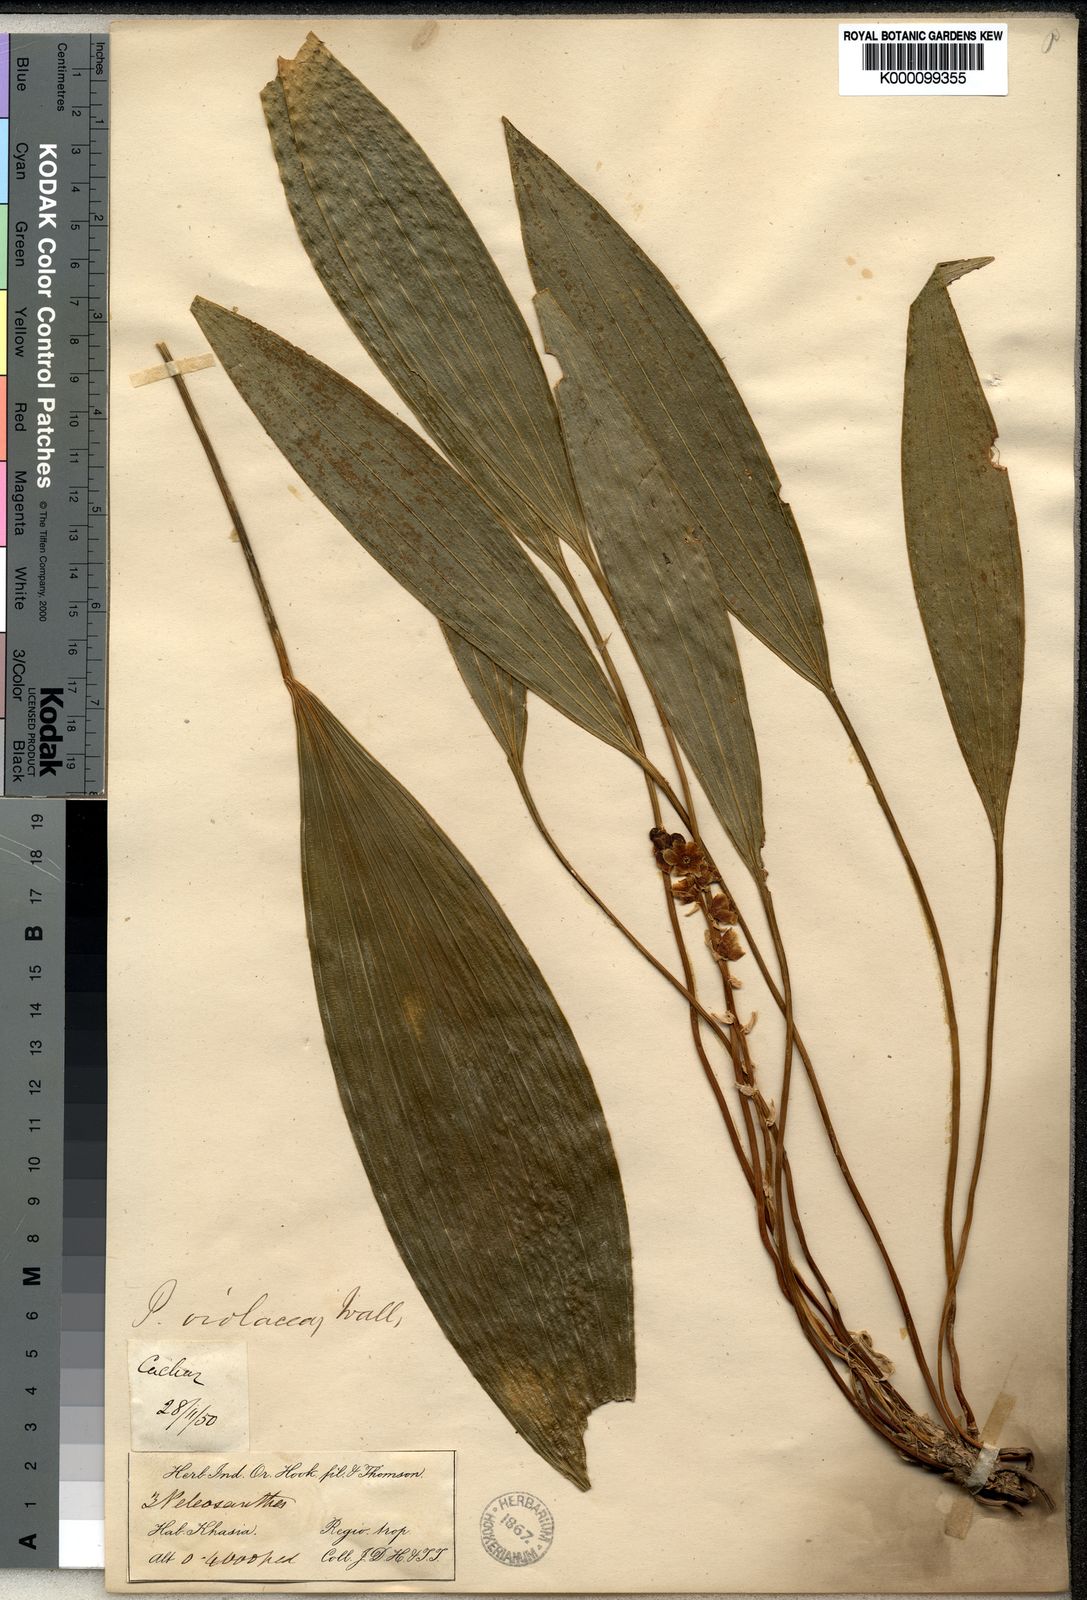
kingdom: Plantae
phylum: Tracheophyta
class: Liliopsida
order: Asparagales
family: Asparagaceae
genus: Peliosanthes
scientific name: Peliosanthes teta
